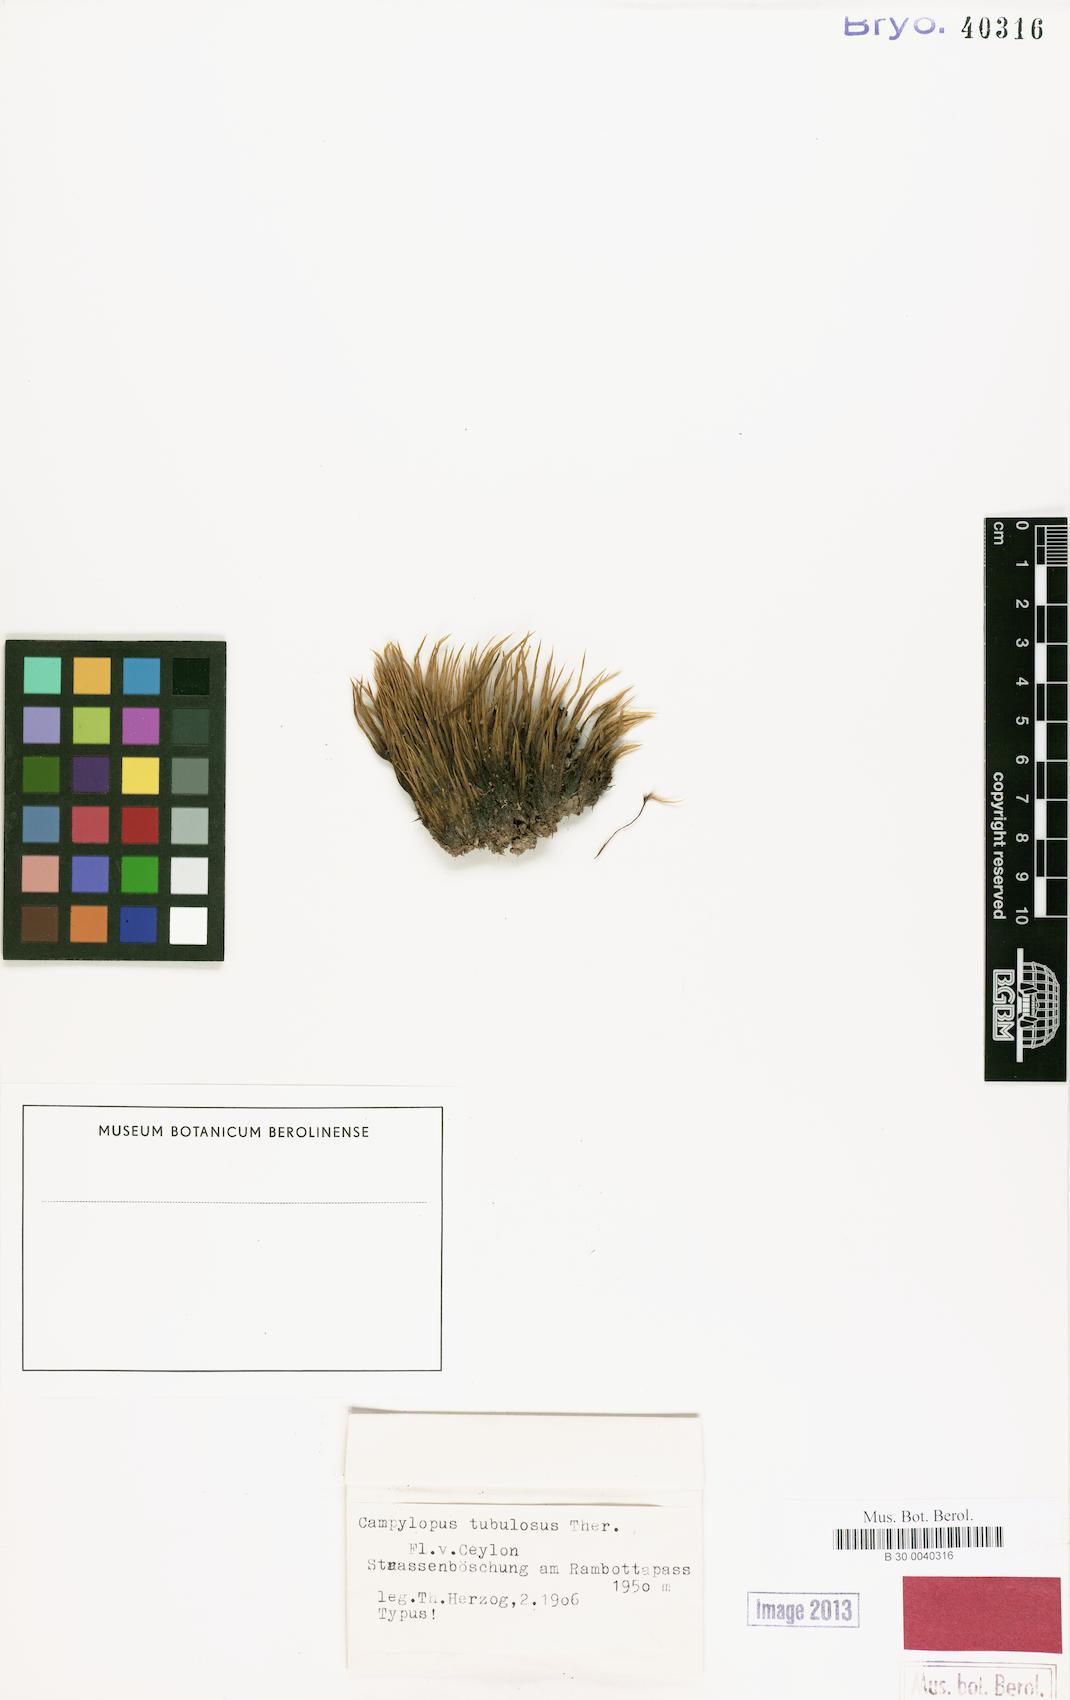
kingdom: Plantae
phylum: Bryophyta
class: Bryopsida
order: Dicranales
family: Leucobryaceae
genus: Campylopus
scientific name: Campylopus schmidii
